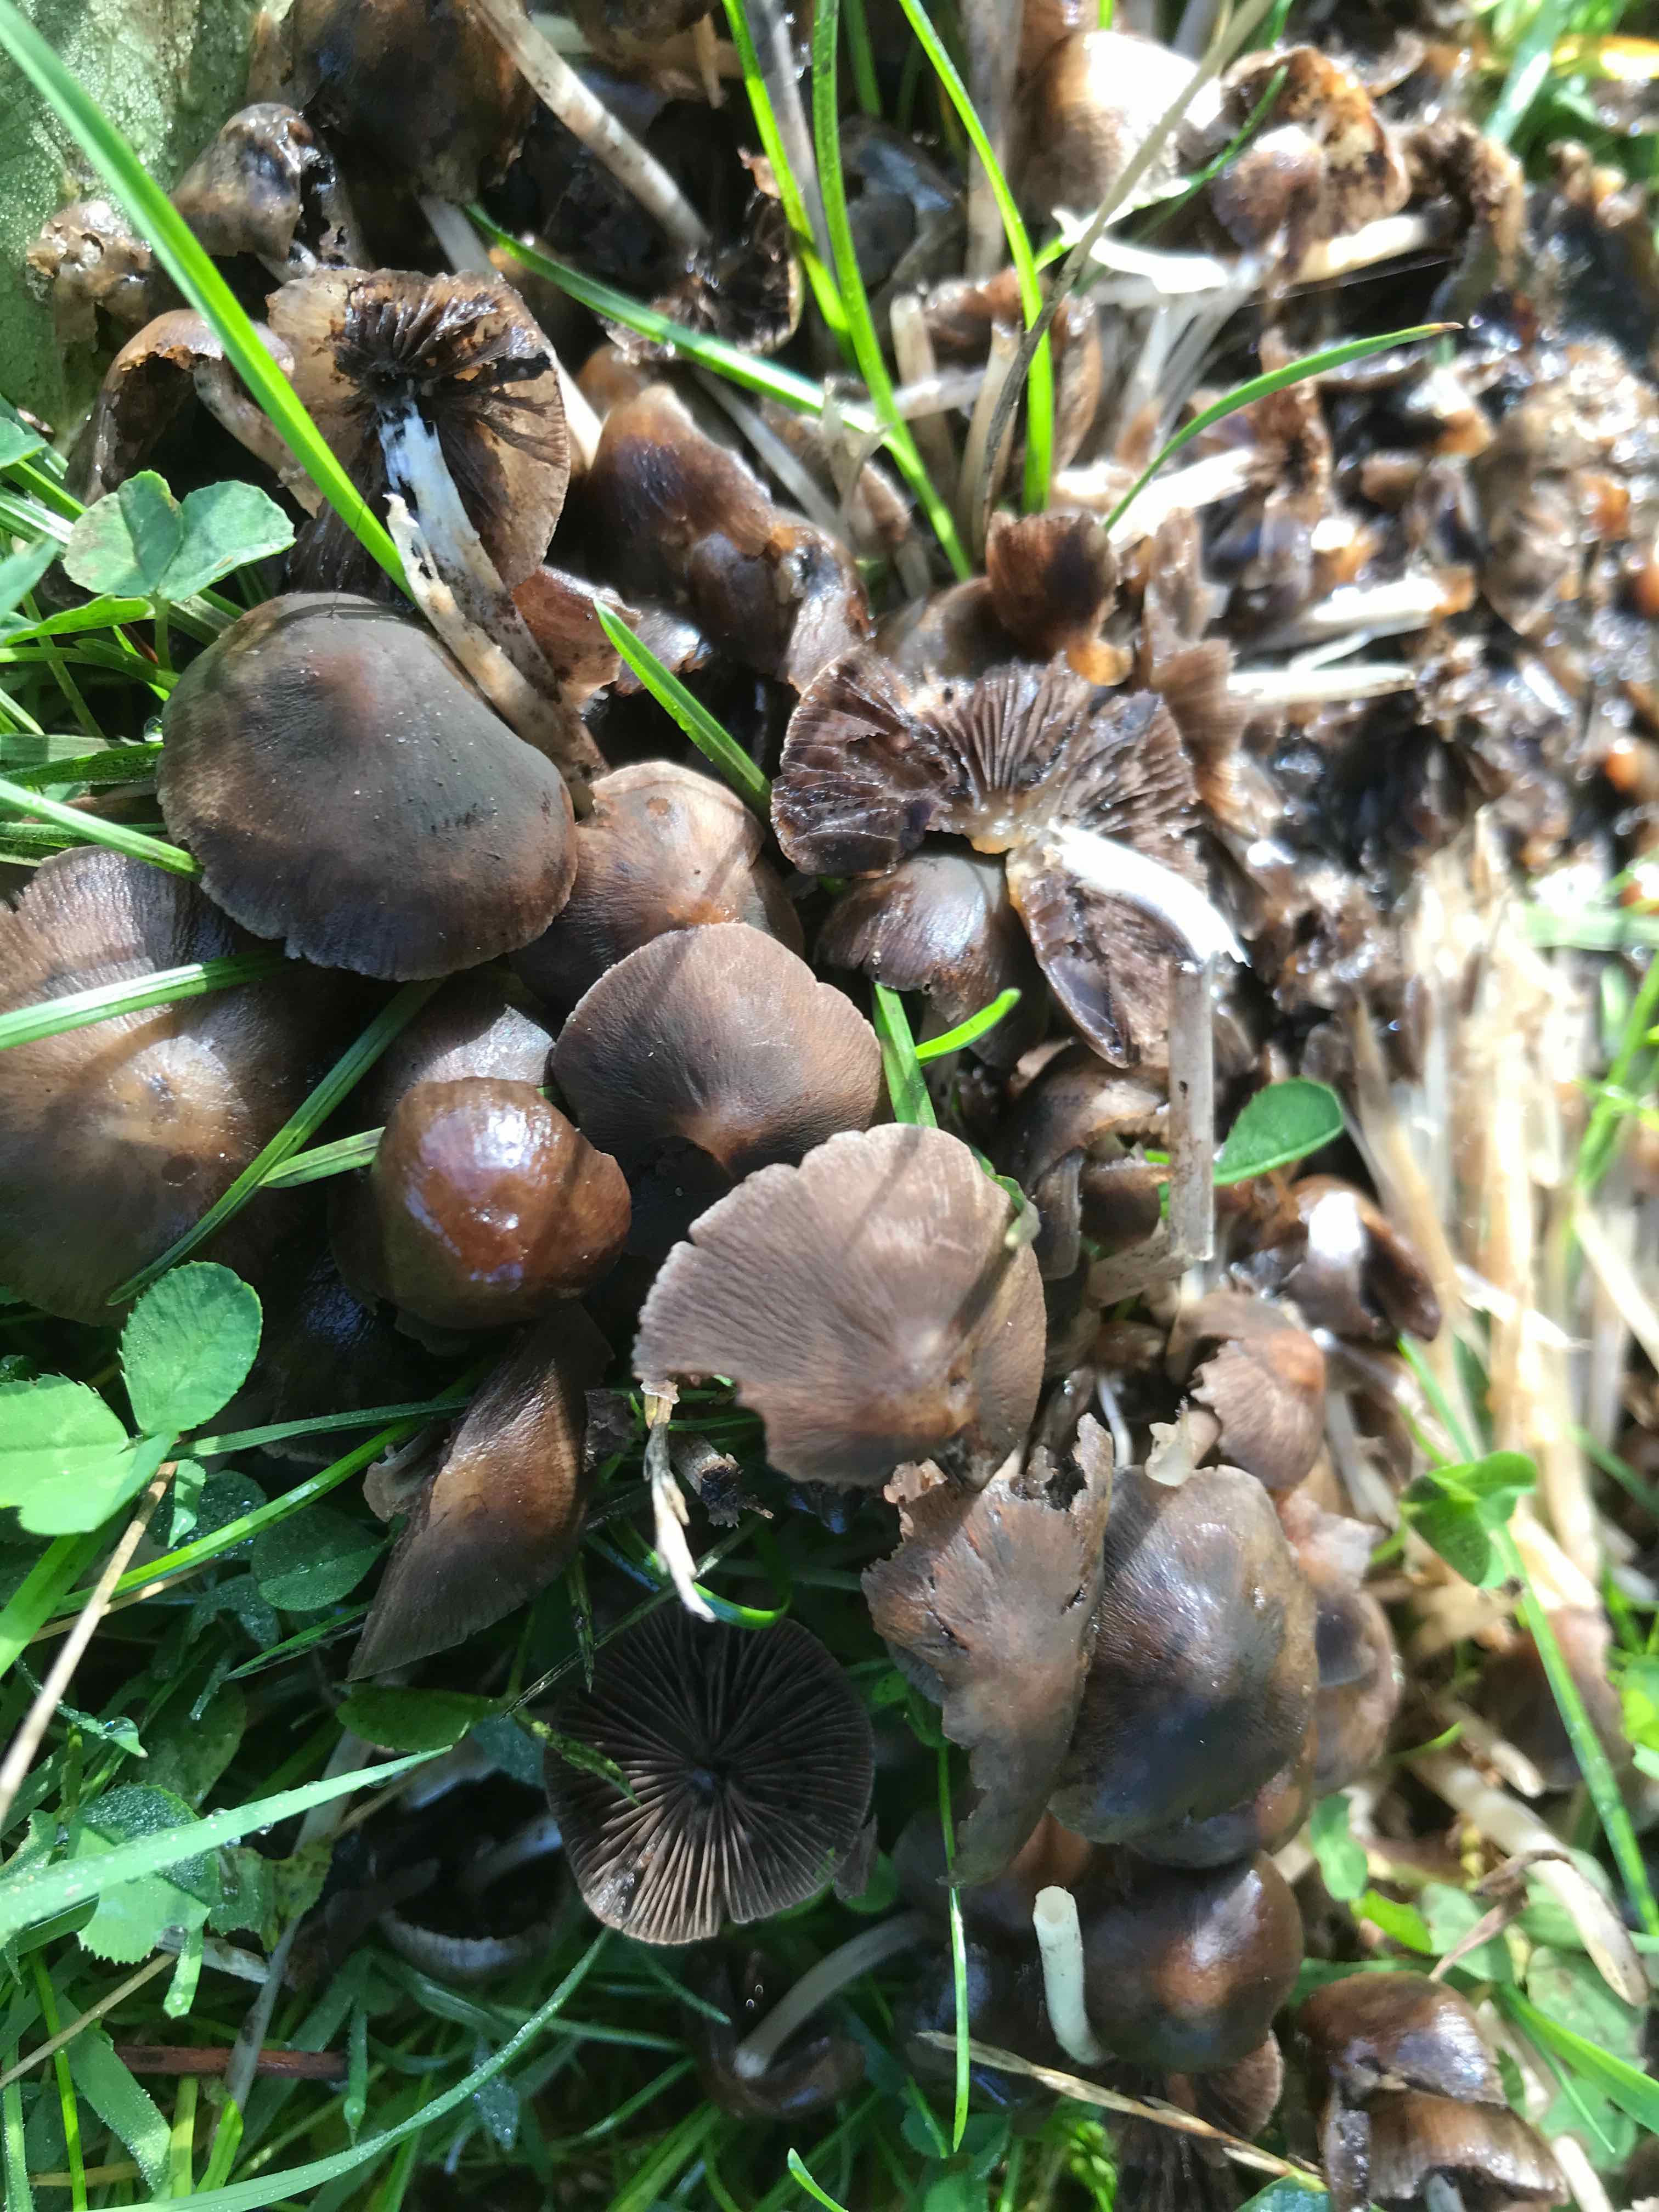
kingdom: Fungi
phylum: Basidiomycota
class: Agaricomycetes
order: Agaricales
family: Psathyrellaceae
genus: Psathyrella
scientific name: Psathyrella
